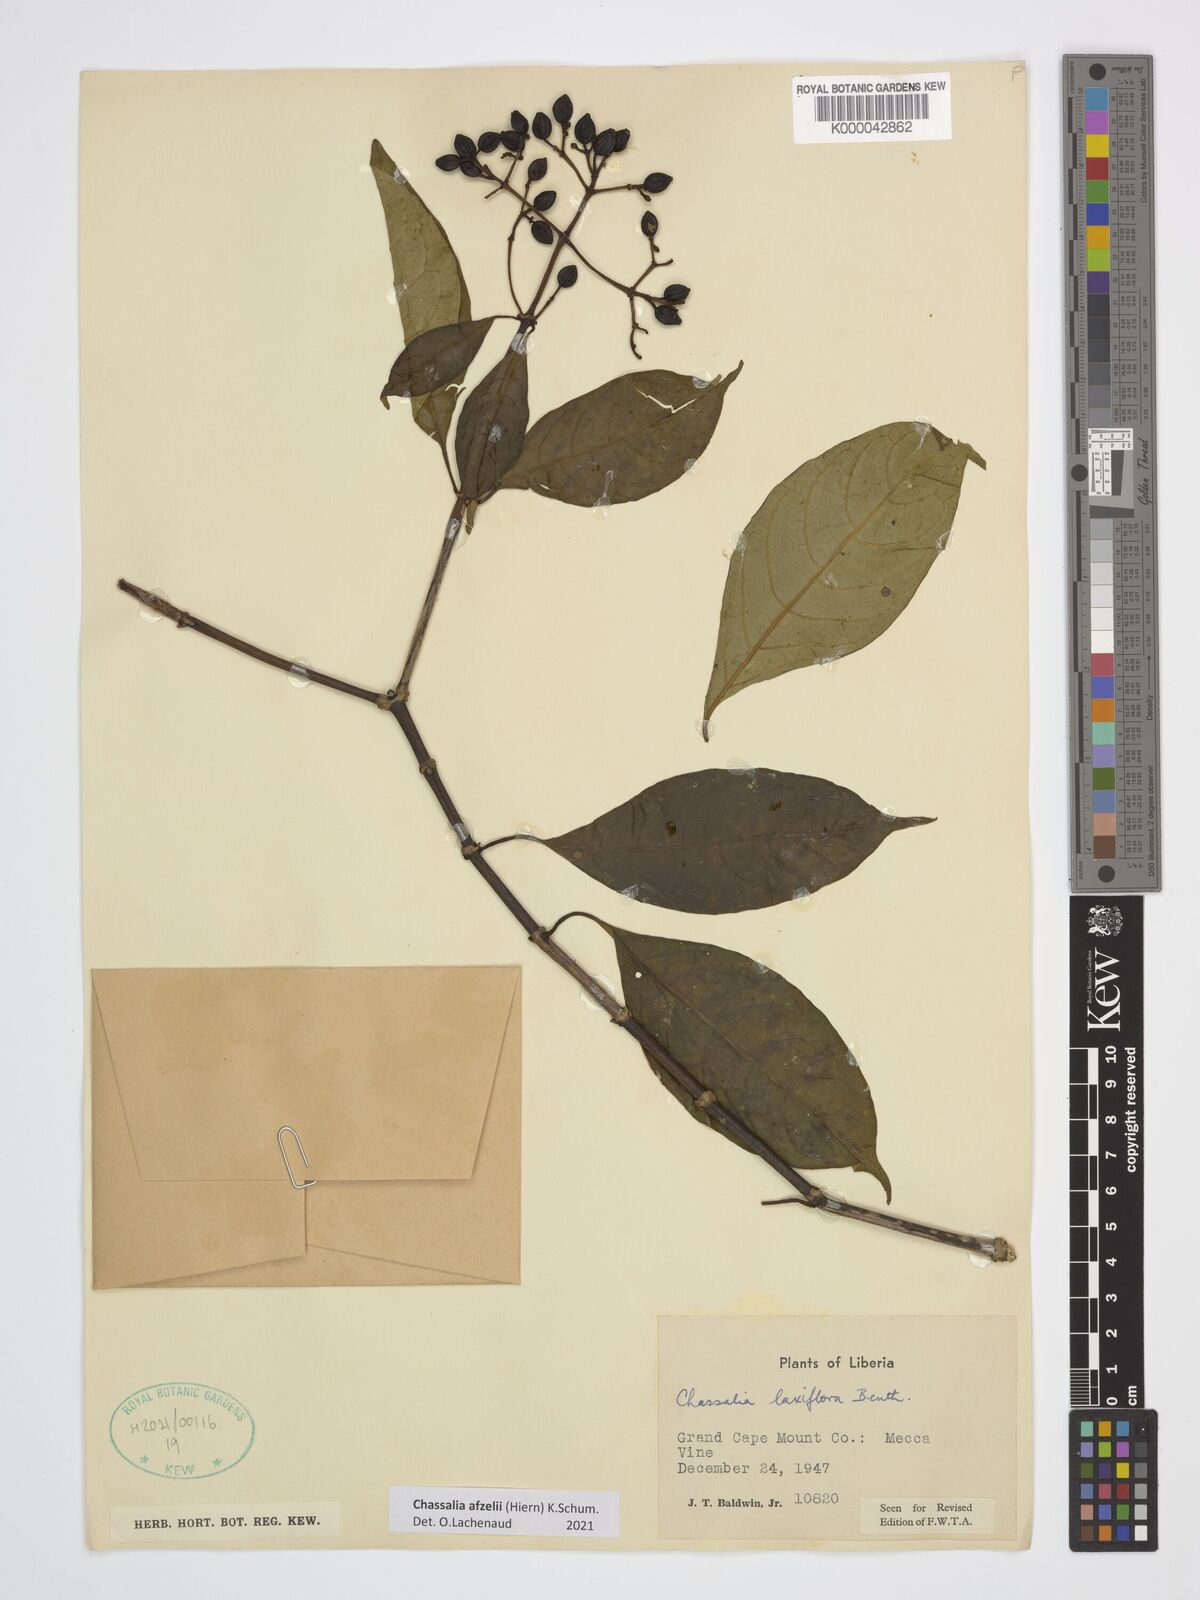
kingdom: Plantae
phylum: Tracheophyta
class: Magnoliopsida
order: Gentianales
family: Rubiaceae
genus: Chassalia
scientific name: Chassalia laxiflora
